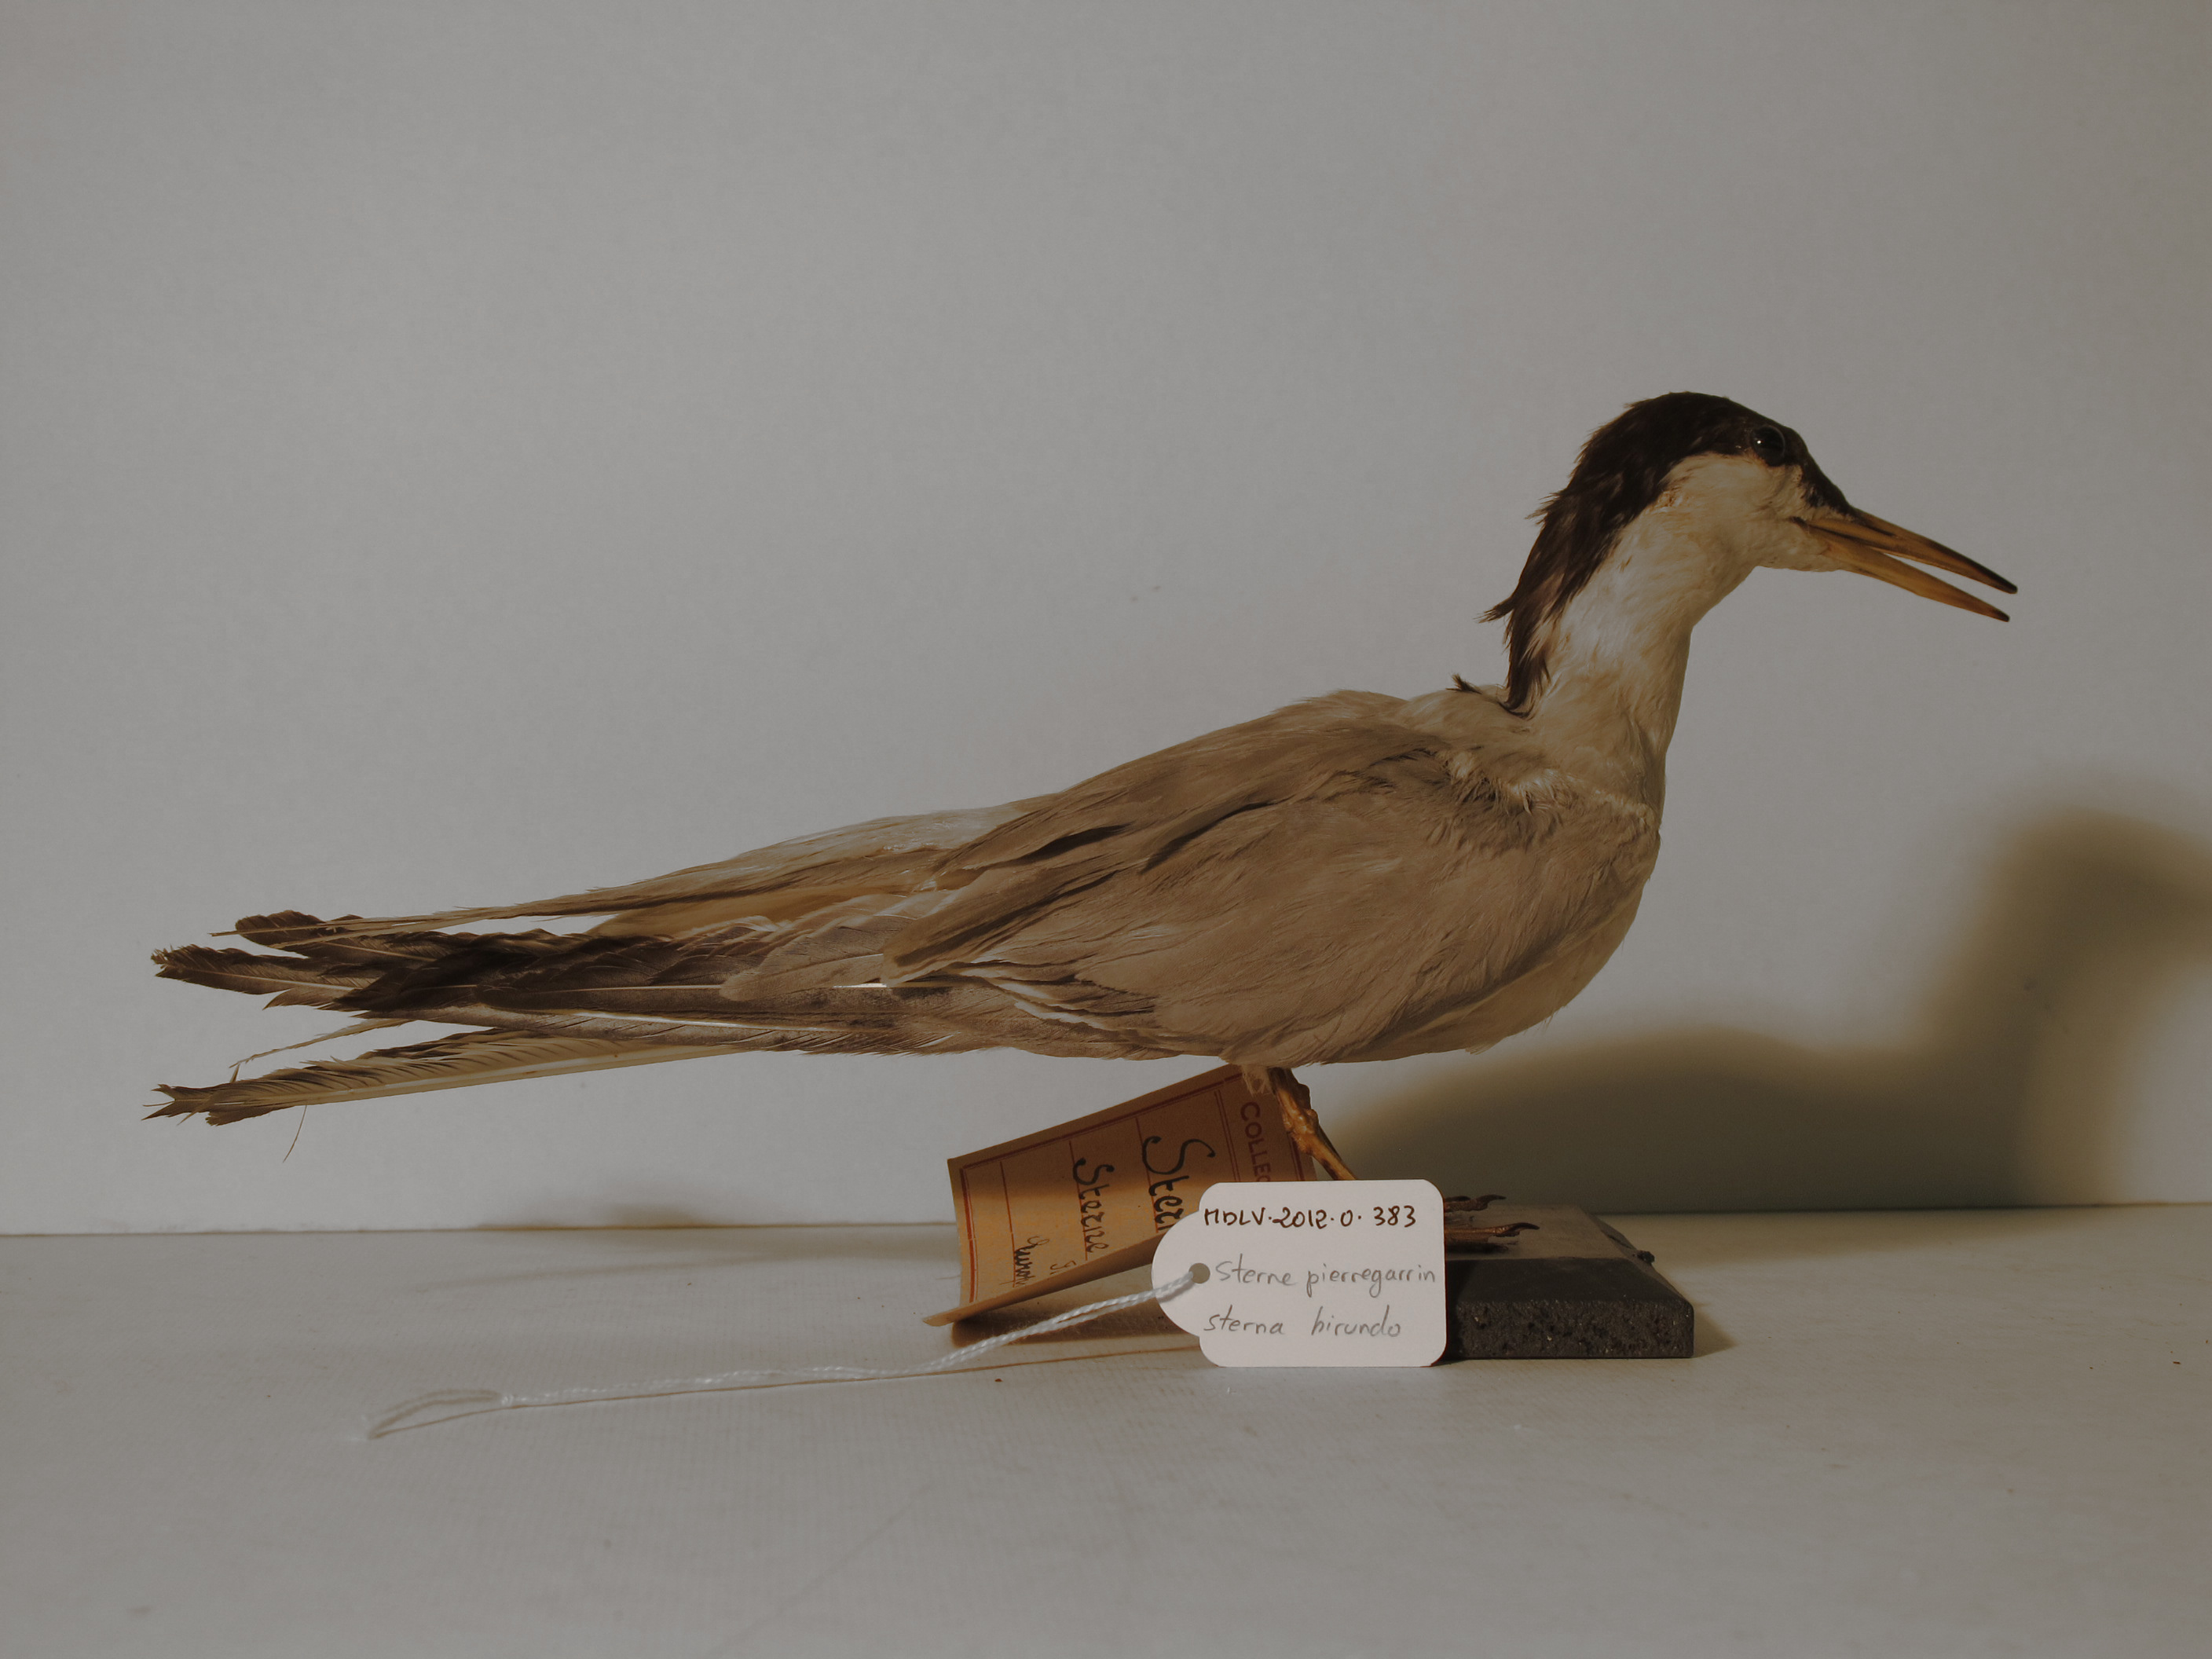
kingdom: Animalia
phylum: Chordata
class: Aves
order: Charadriiformes
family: Laridae
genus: Sterna
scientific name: Sterna hirundo
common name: Common Tern
